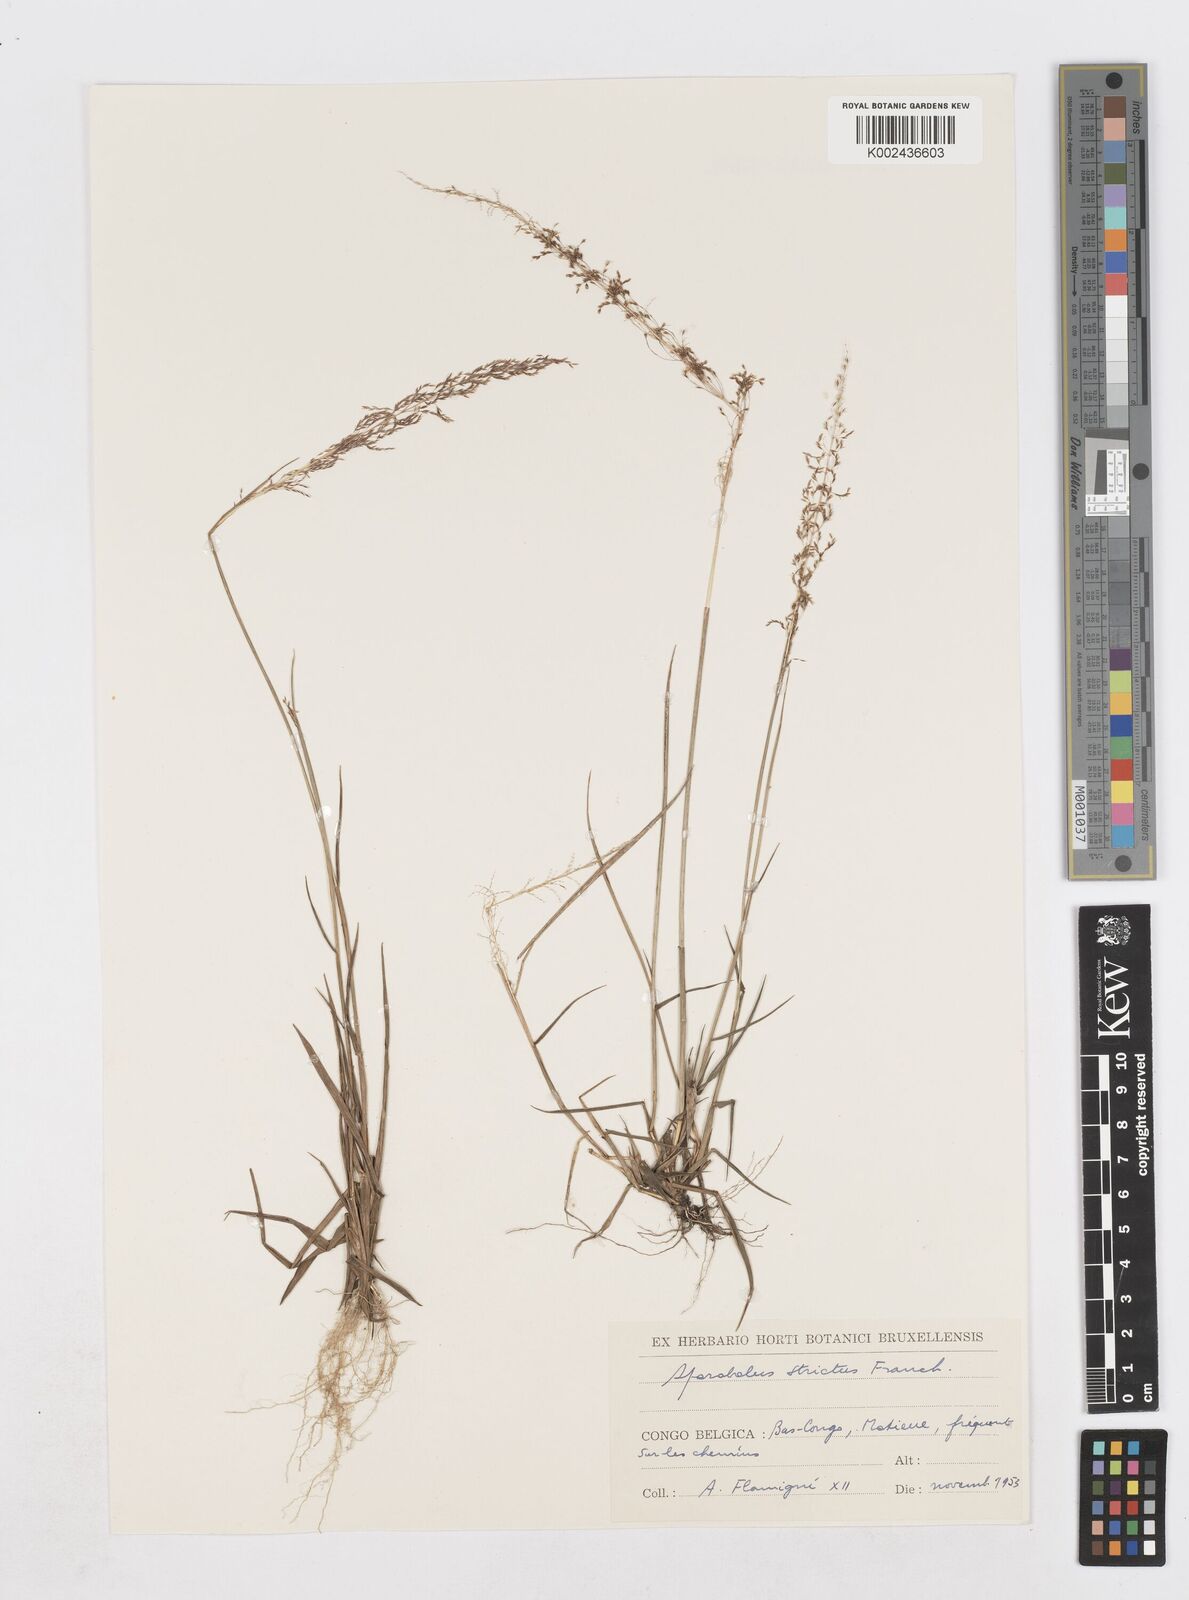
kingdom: Plantae
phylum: Tracheophyta
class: Liliopsida
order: Poales
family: Poaceae
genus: Sporobolus
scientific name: Sporobolus paniculatus
